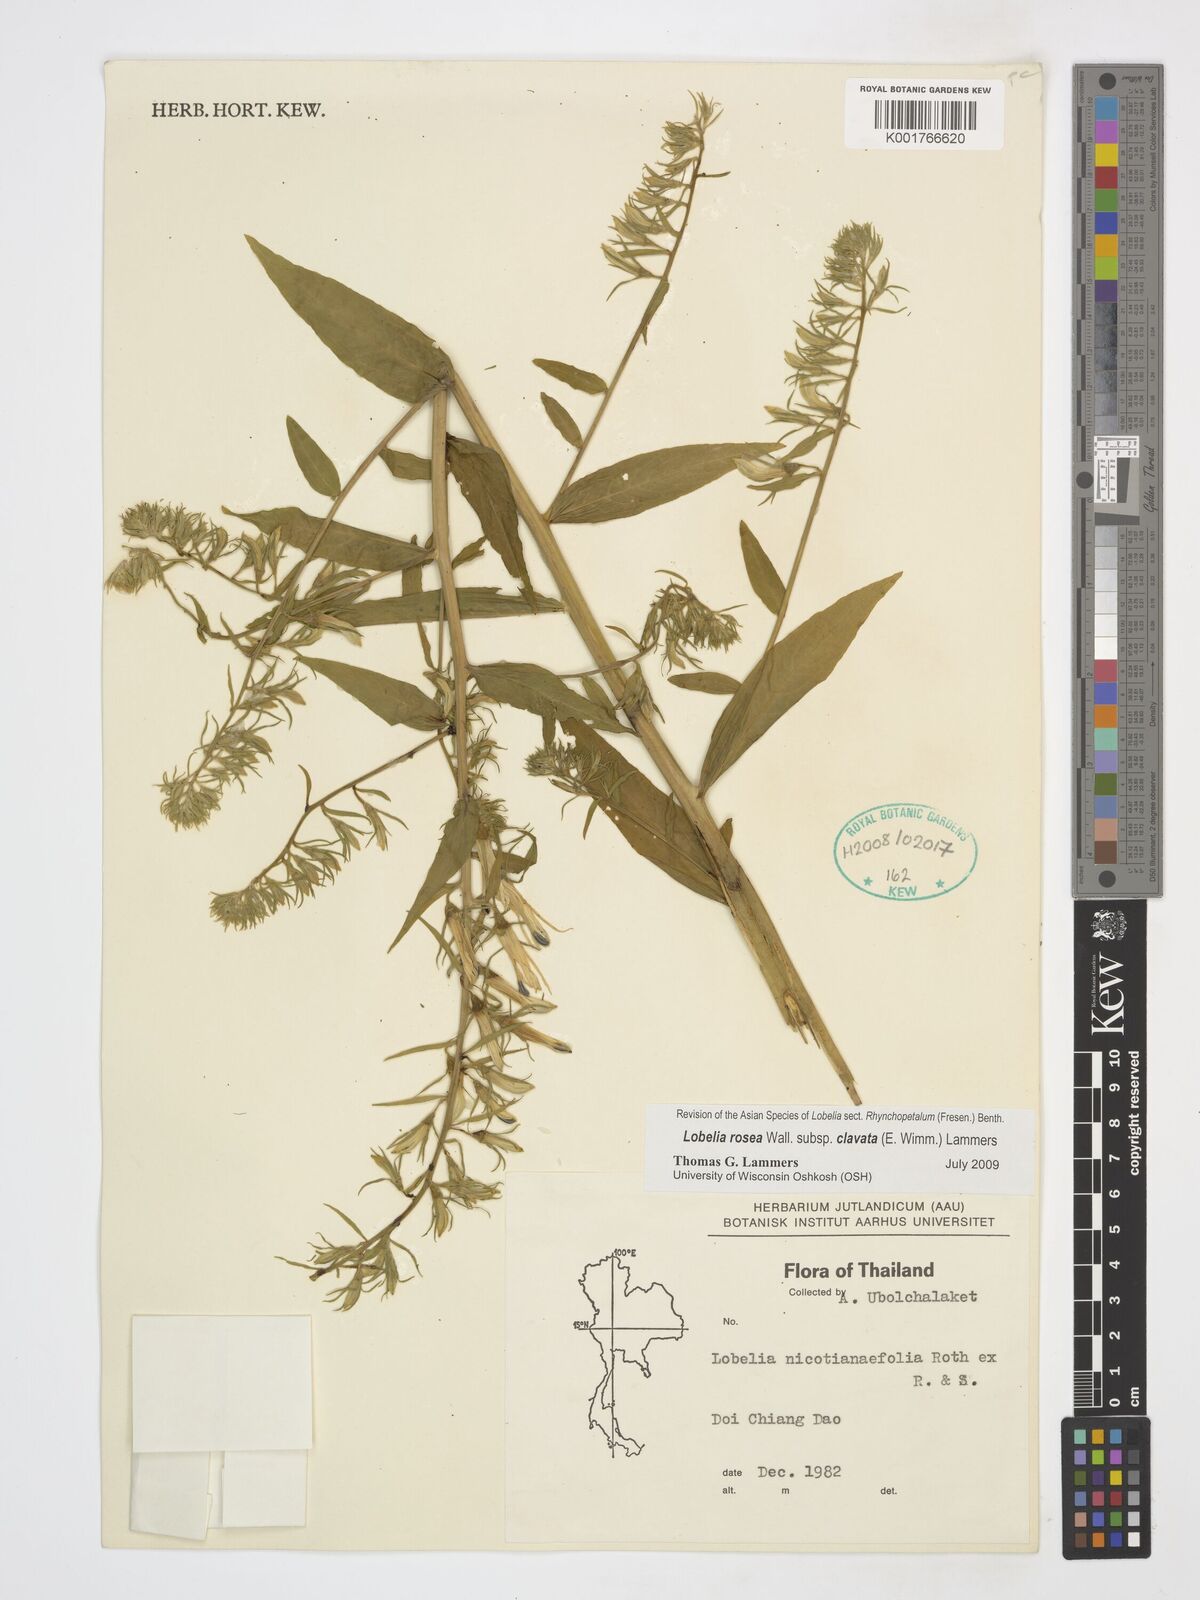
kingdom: Plantae
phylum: Tracheophyta
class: Magnoliopsida
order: Asterales
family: Campanulaceae
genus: Lobelia
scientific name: Lobelia rosea
